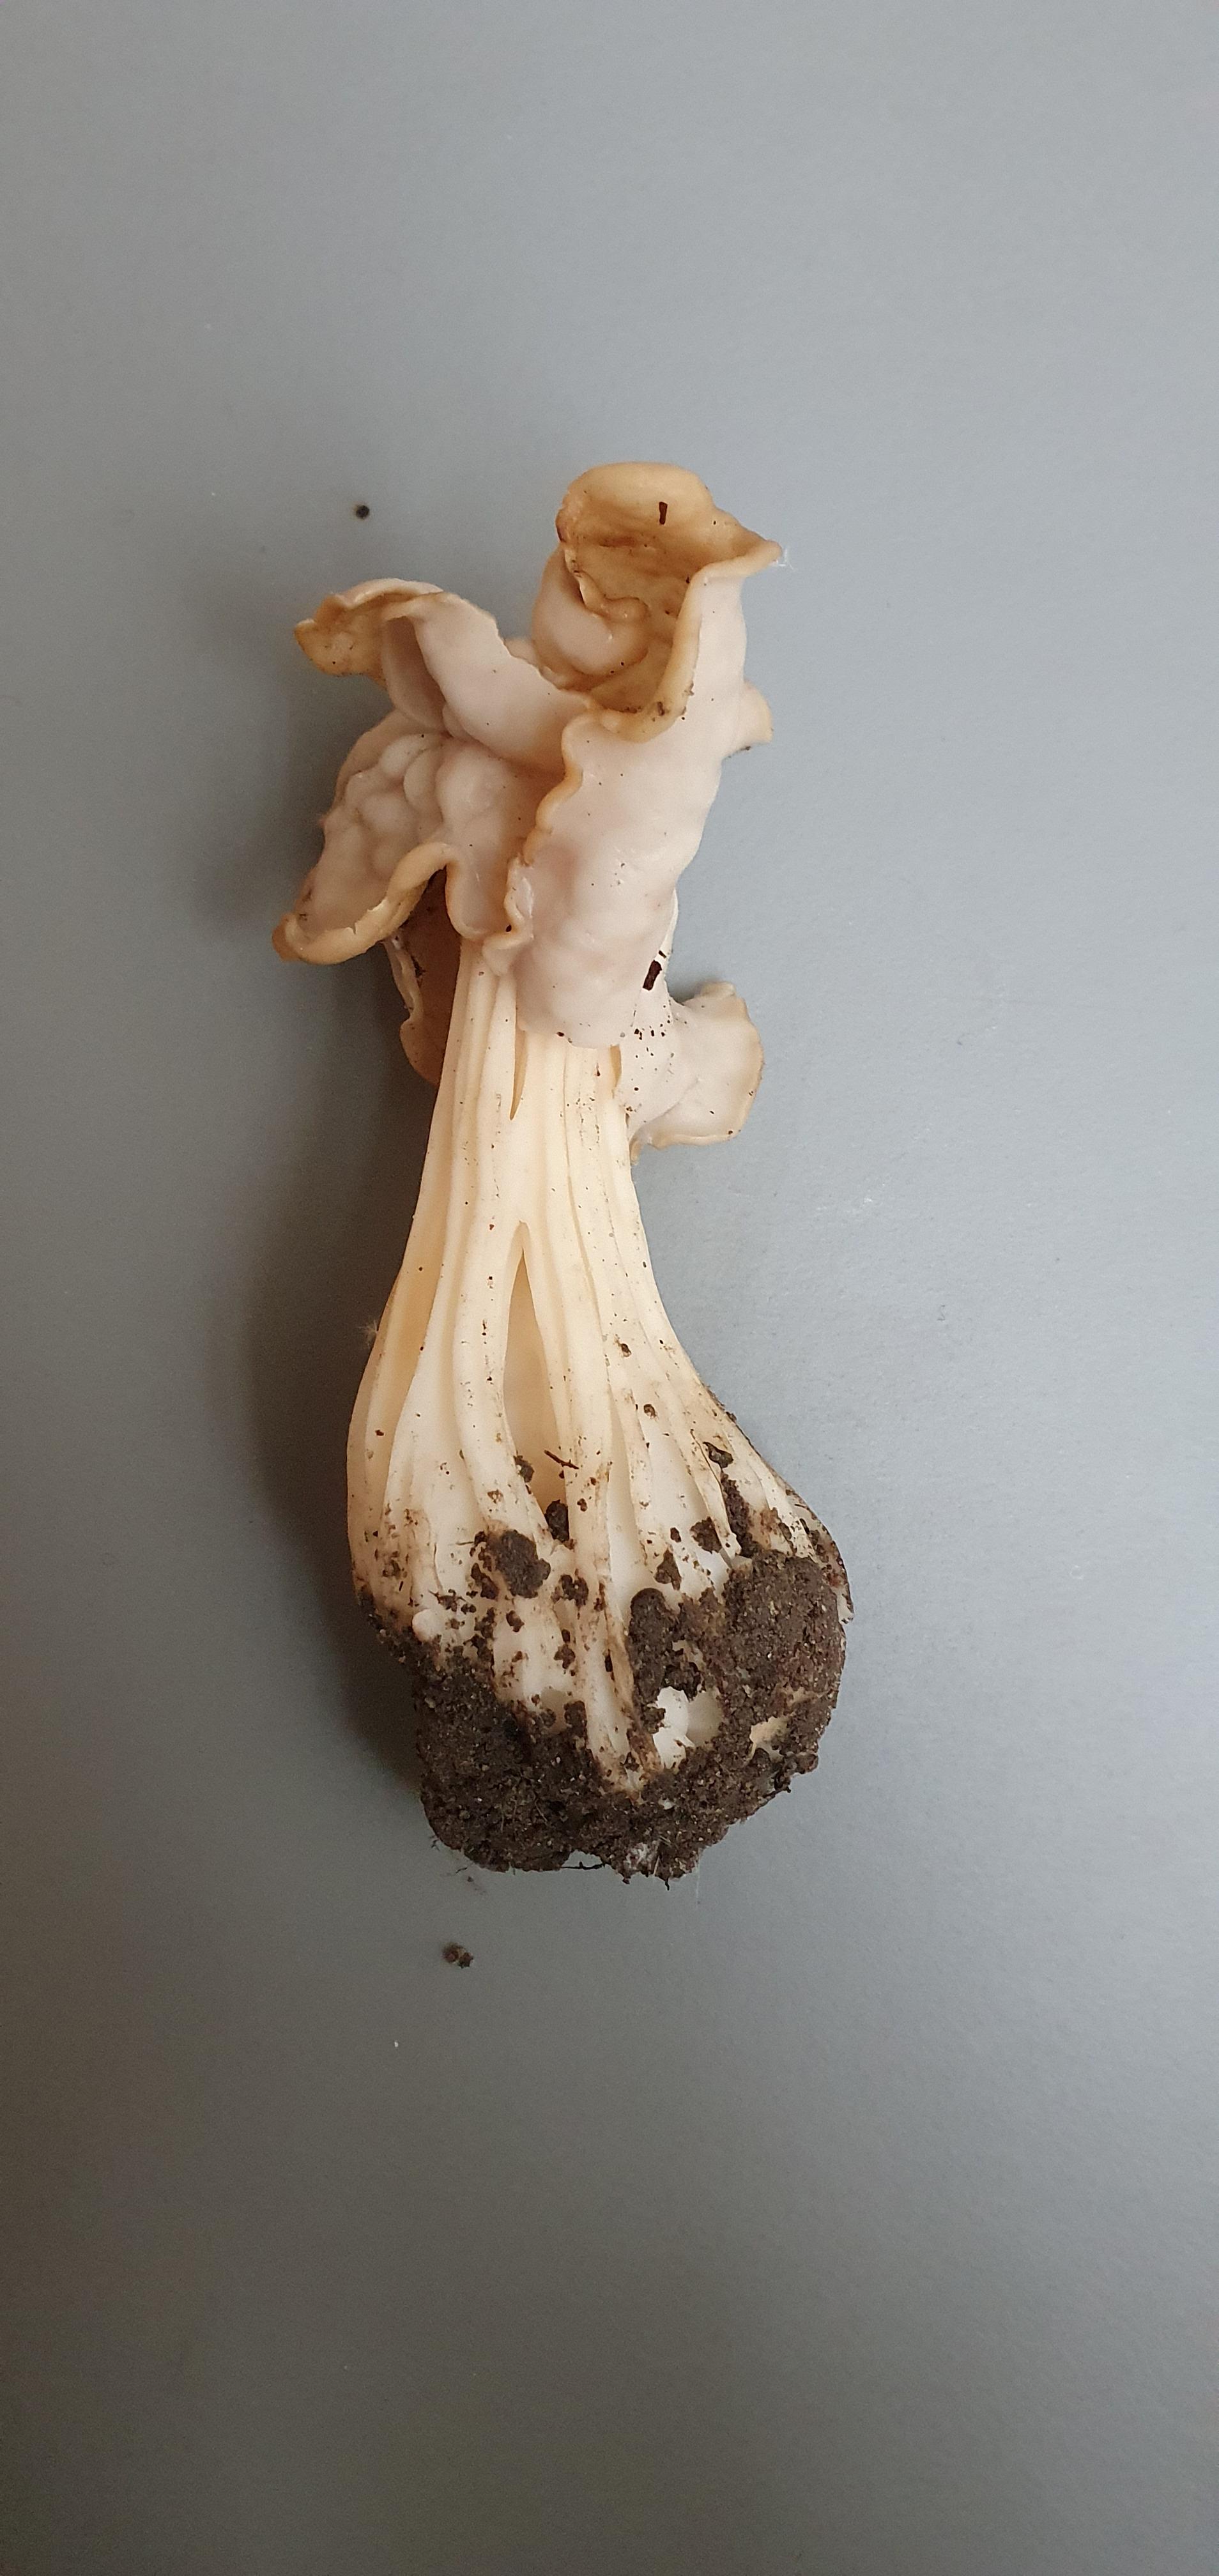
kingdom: Fungi
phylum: Ascomycota
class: Pezizomycetes
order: Pezizales
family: Helvellaceae
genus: Helvella
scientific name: Helvella crispa
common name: kruset foldhat
